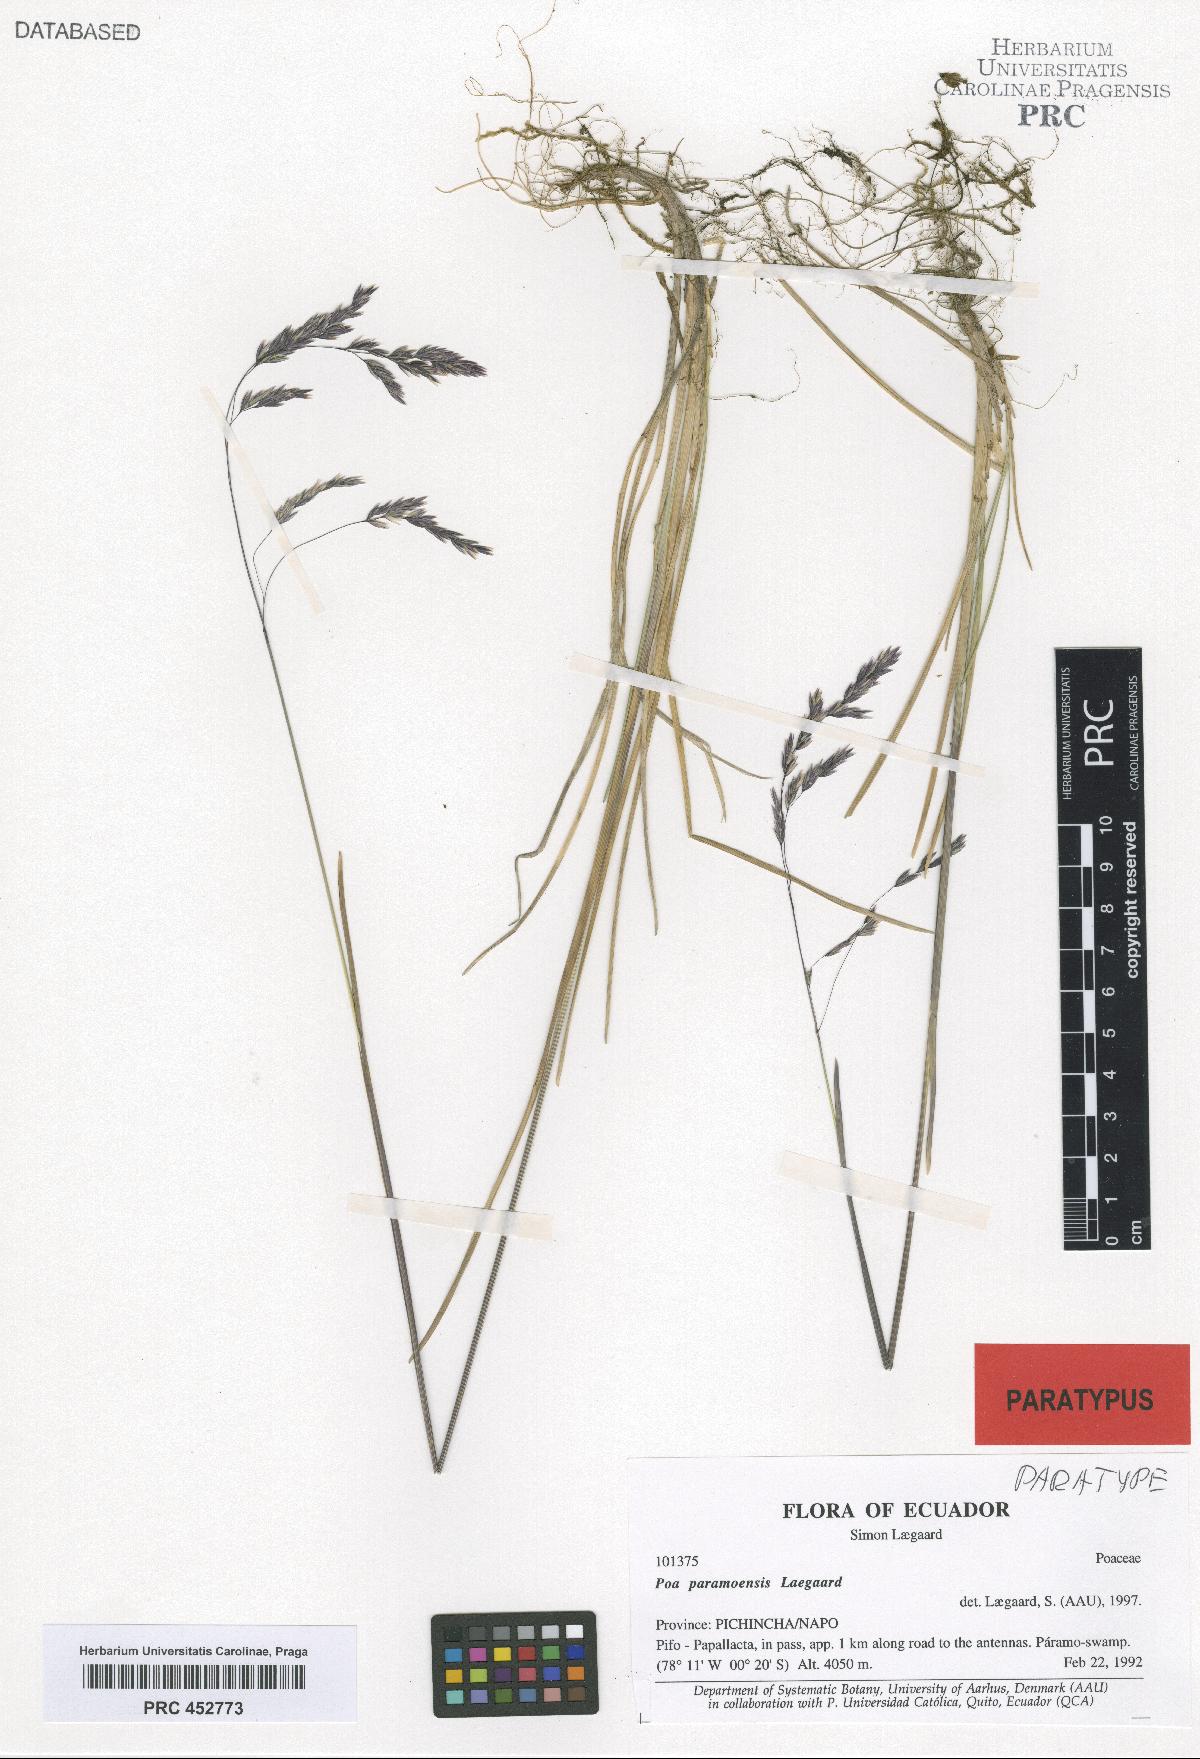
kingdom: Plantae
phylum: Tracheophyta
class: Liliopsida
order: Poales
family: Poaceae
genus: Poa
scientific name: Poa huancavelicae
